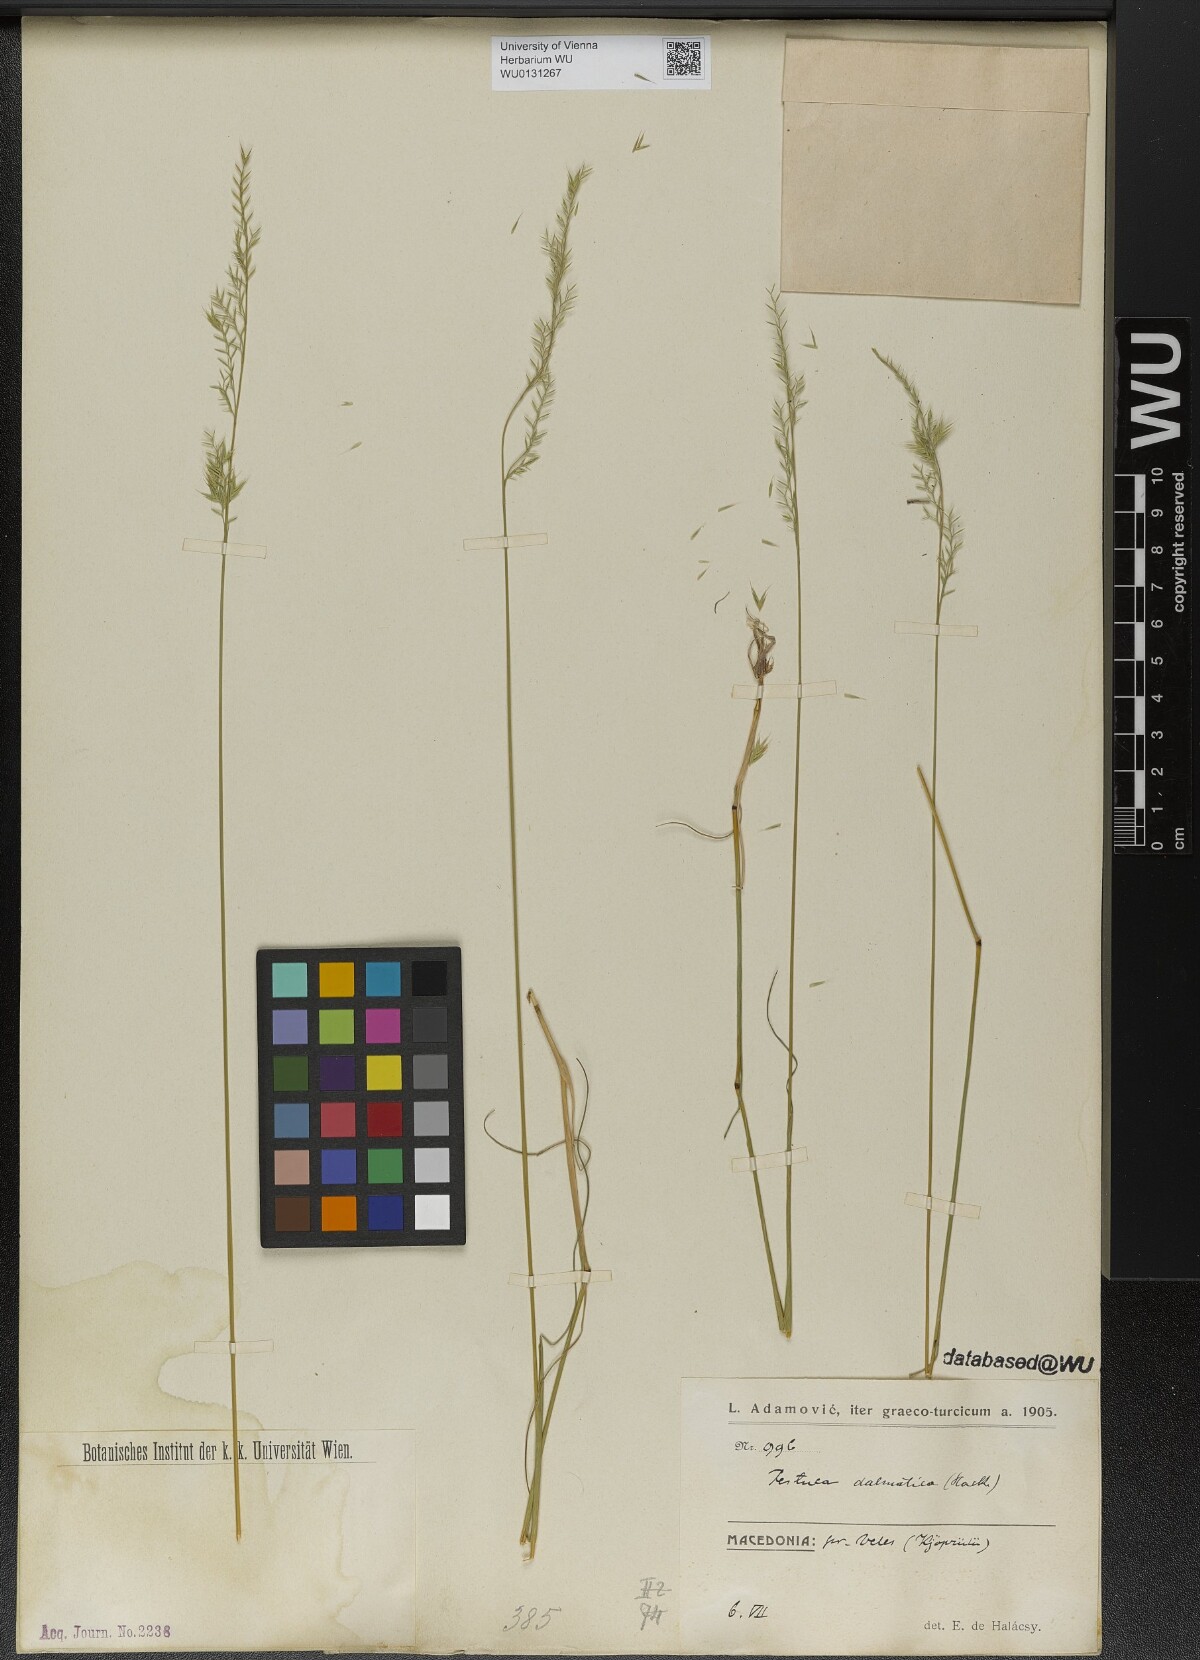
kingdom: Plantae
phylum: Tracheophyta
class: Liliopsida
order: Poales
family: Poaceae
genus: Festuca
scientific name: Festuca dalmatica
